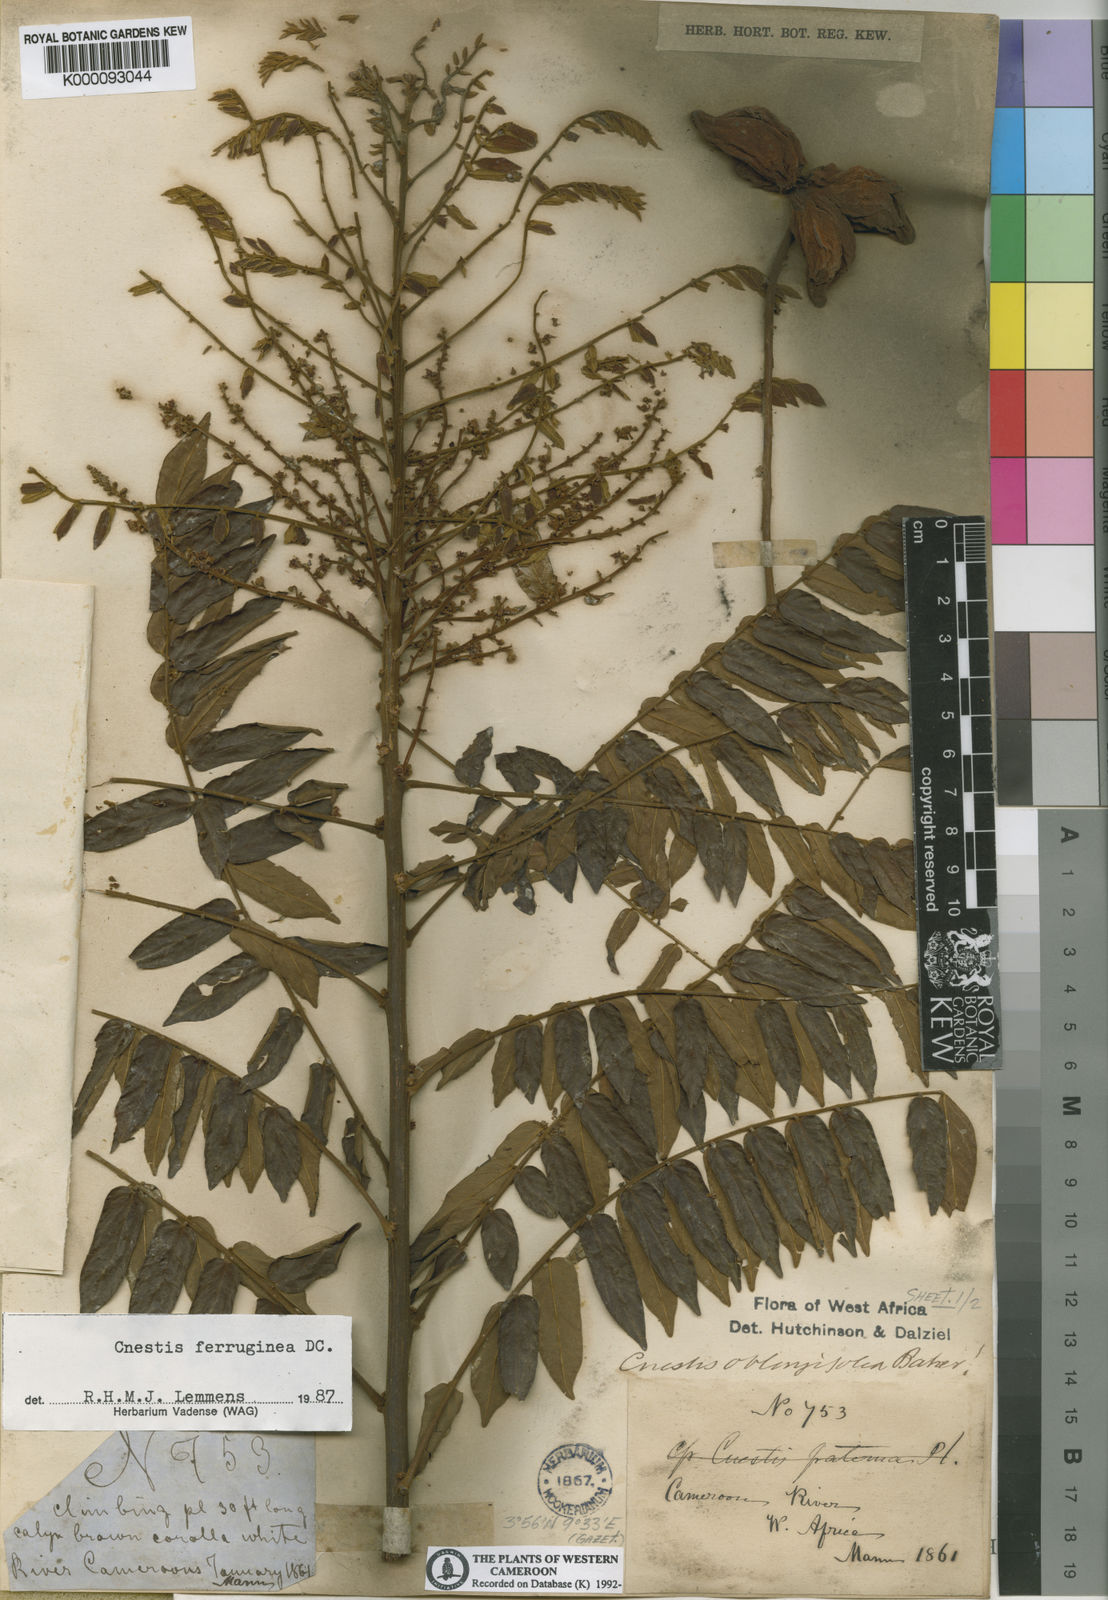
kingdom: Plantae
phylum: Tracheophyta
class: Magnoliopsida
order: Oxalidales
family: Connaraceae
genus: Cnestis
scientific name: Cnestis ferruginea
